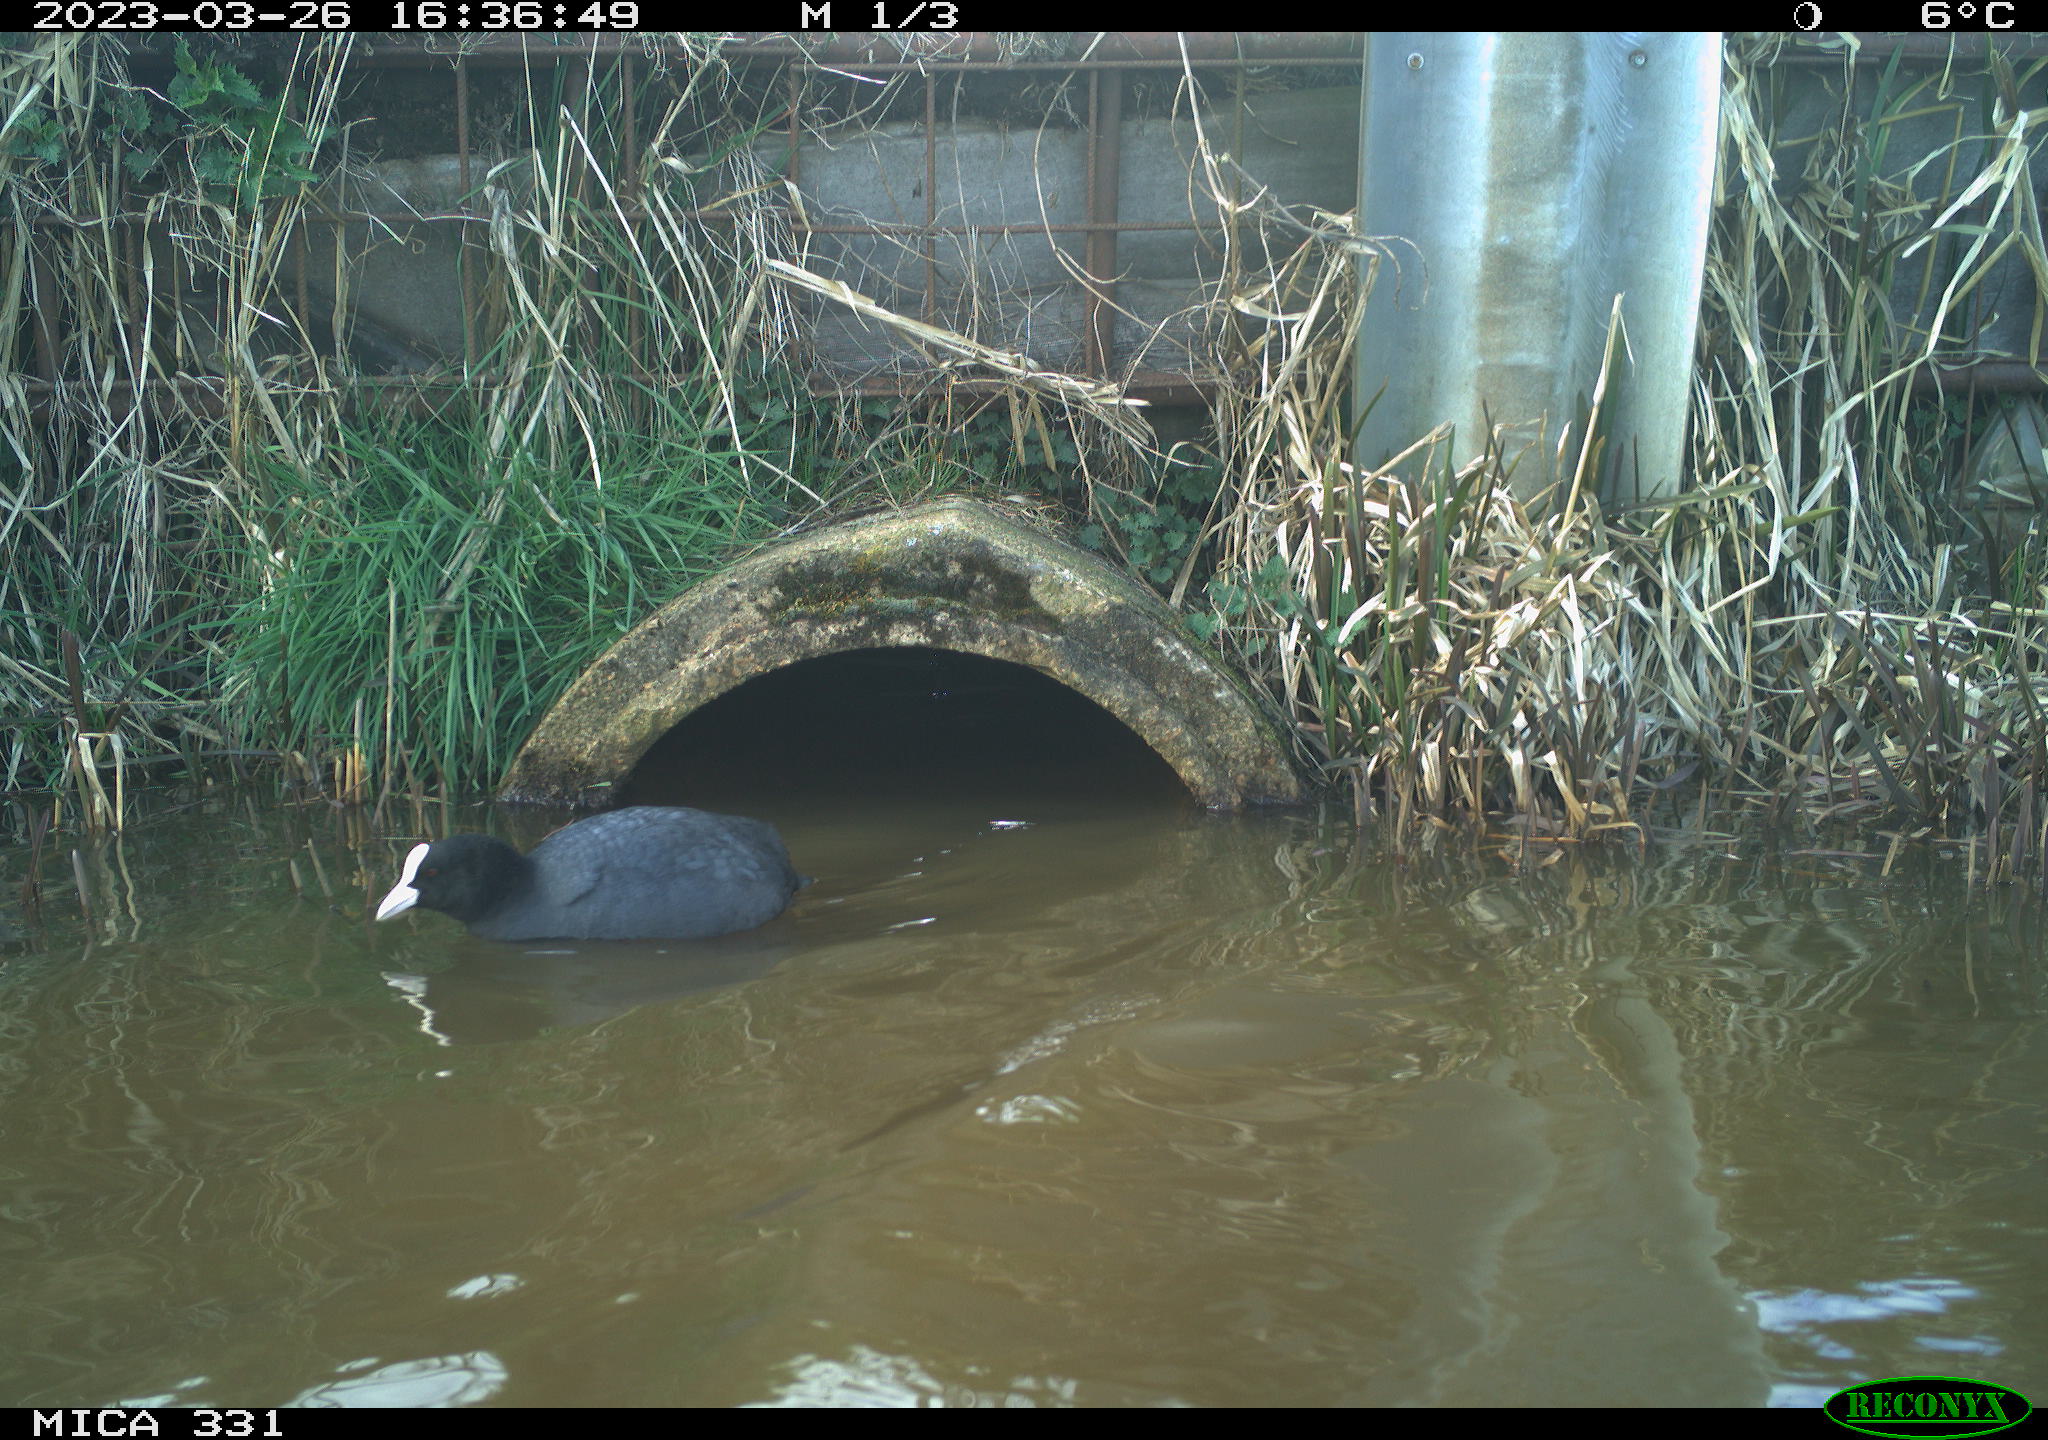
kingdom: Animalia
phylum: Chordata
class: Aves
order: Gruiformes
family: Rallidae
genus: Fulica
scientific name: Fulica atra
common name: Eurasian coot
